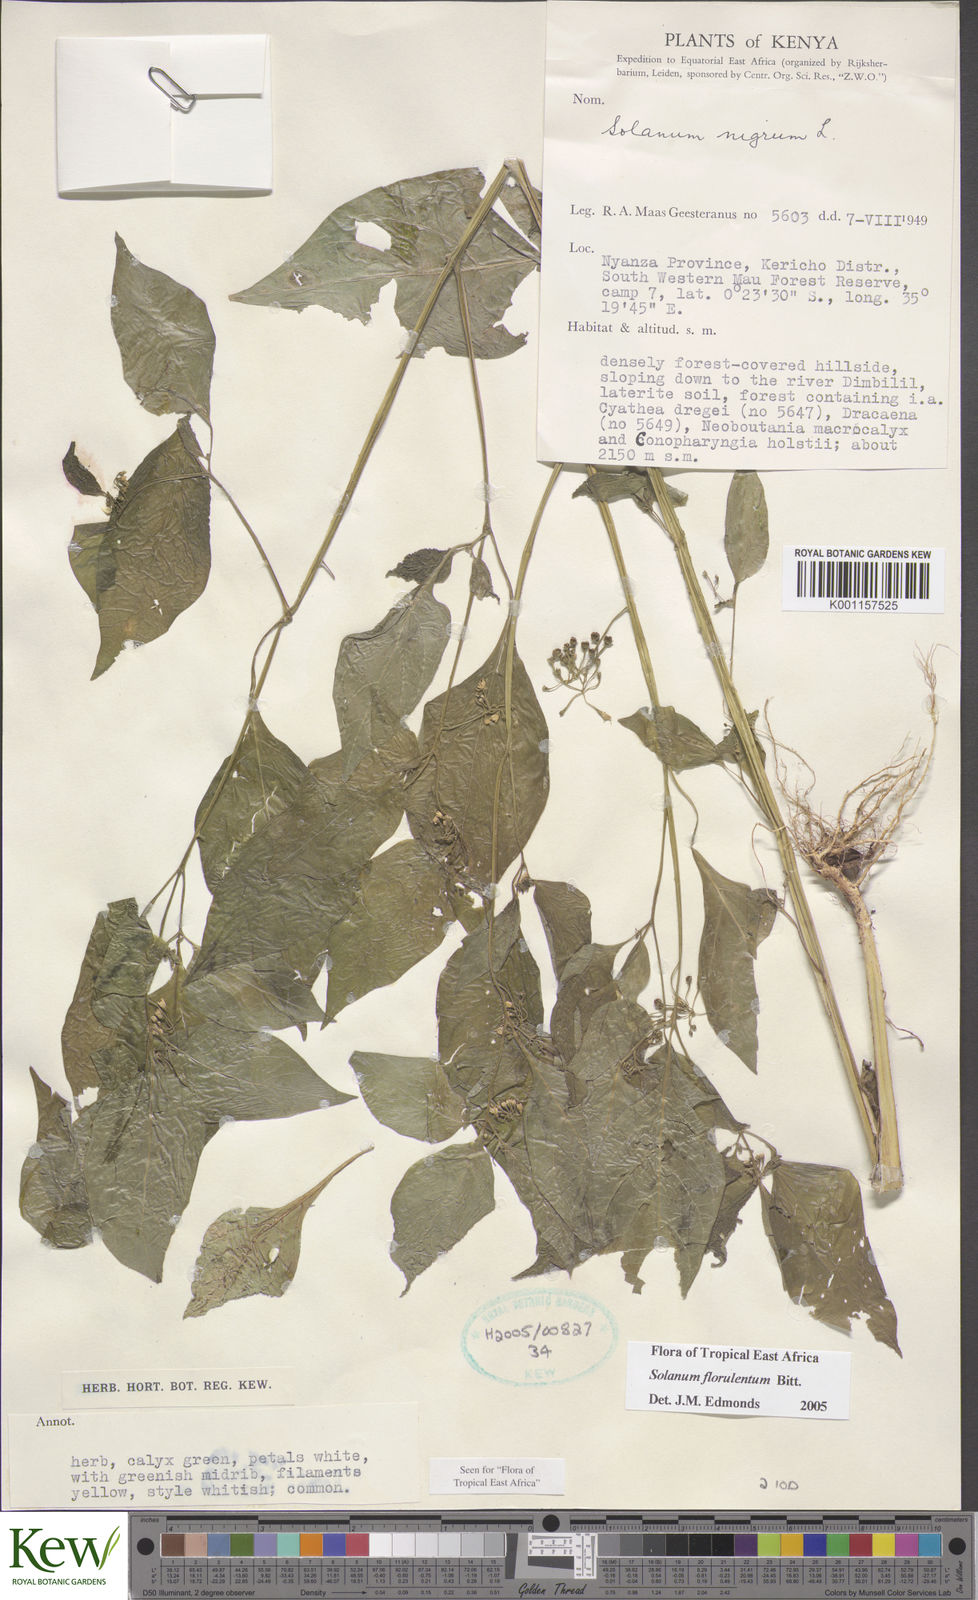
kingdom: Plantae
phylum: Tracheophyta
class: Magnoliopsida
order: Solanales
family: Solanaceae
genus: Solanum
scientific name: Solanum tarderemotum
